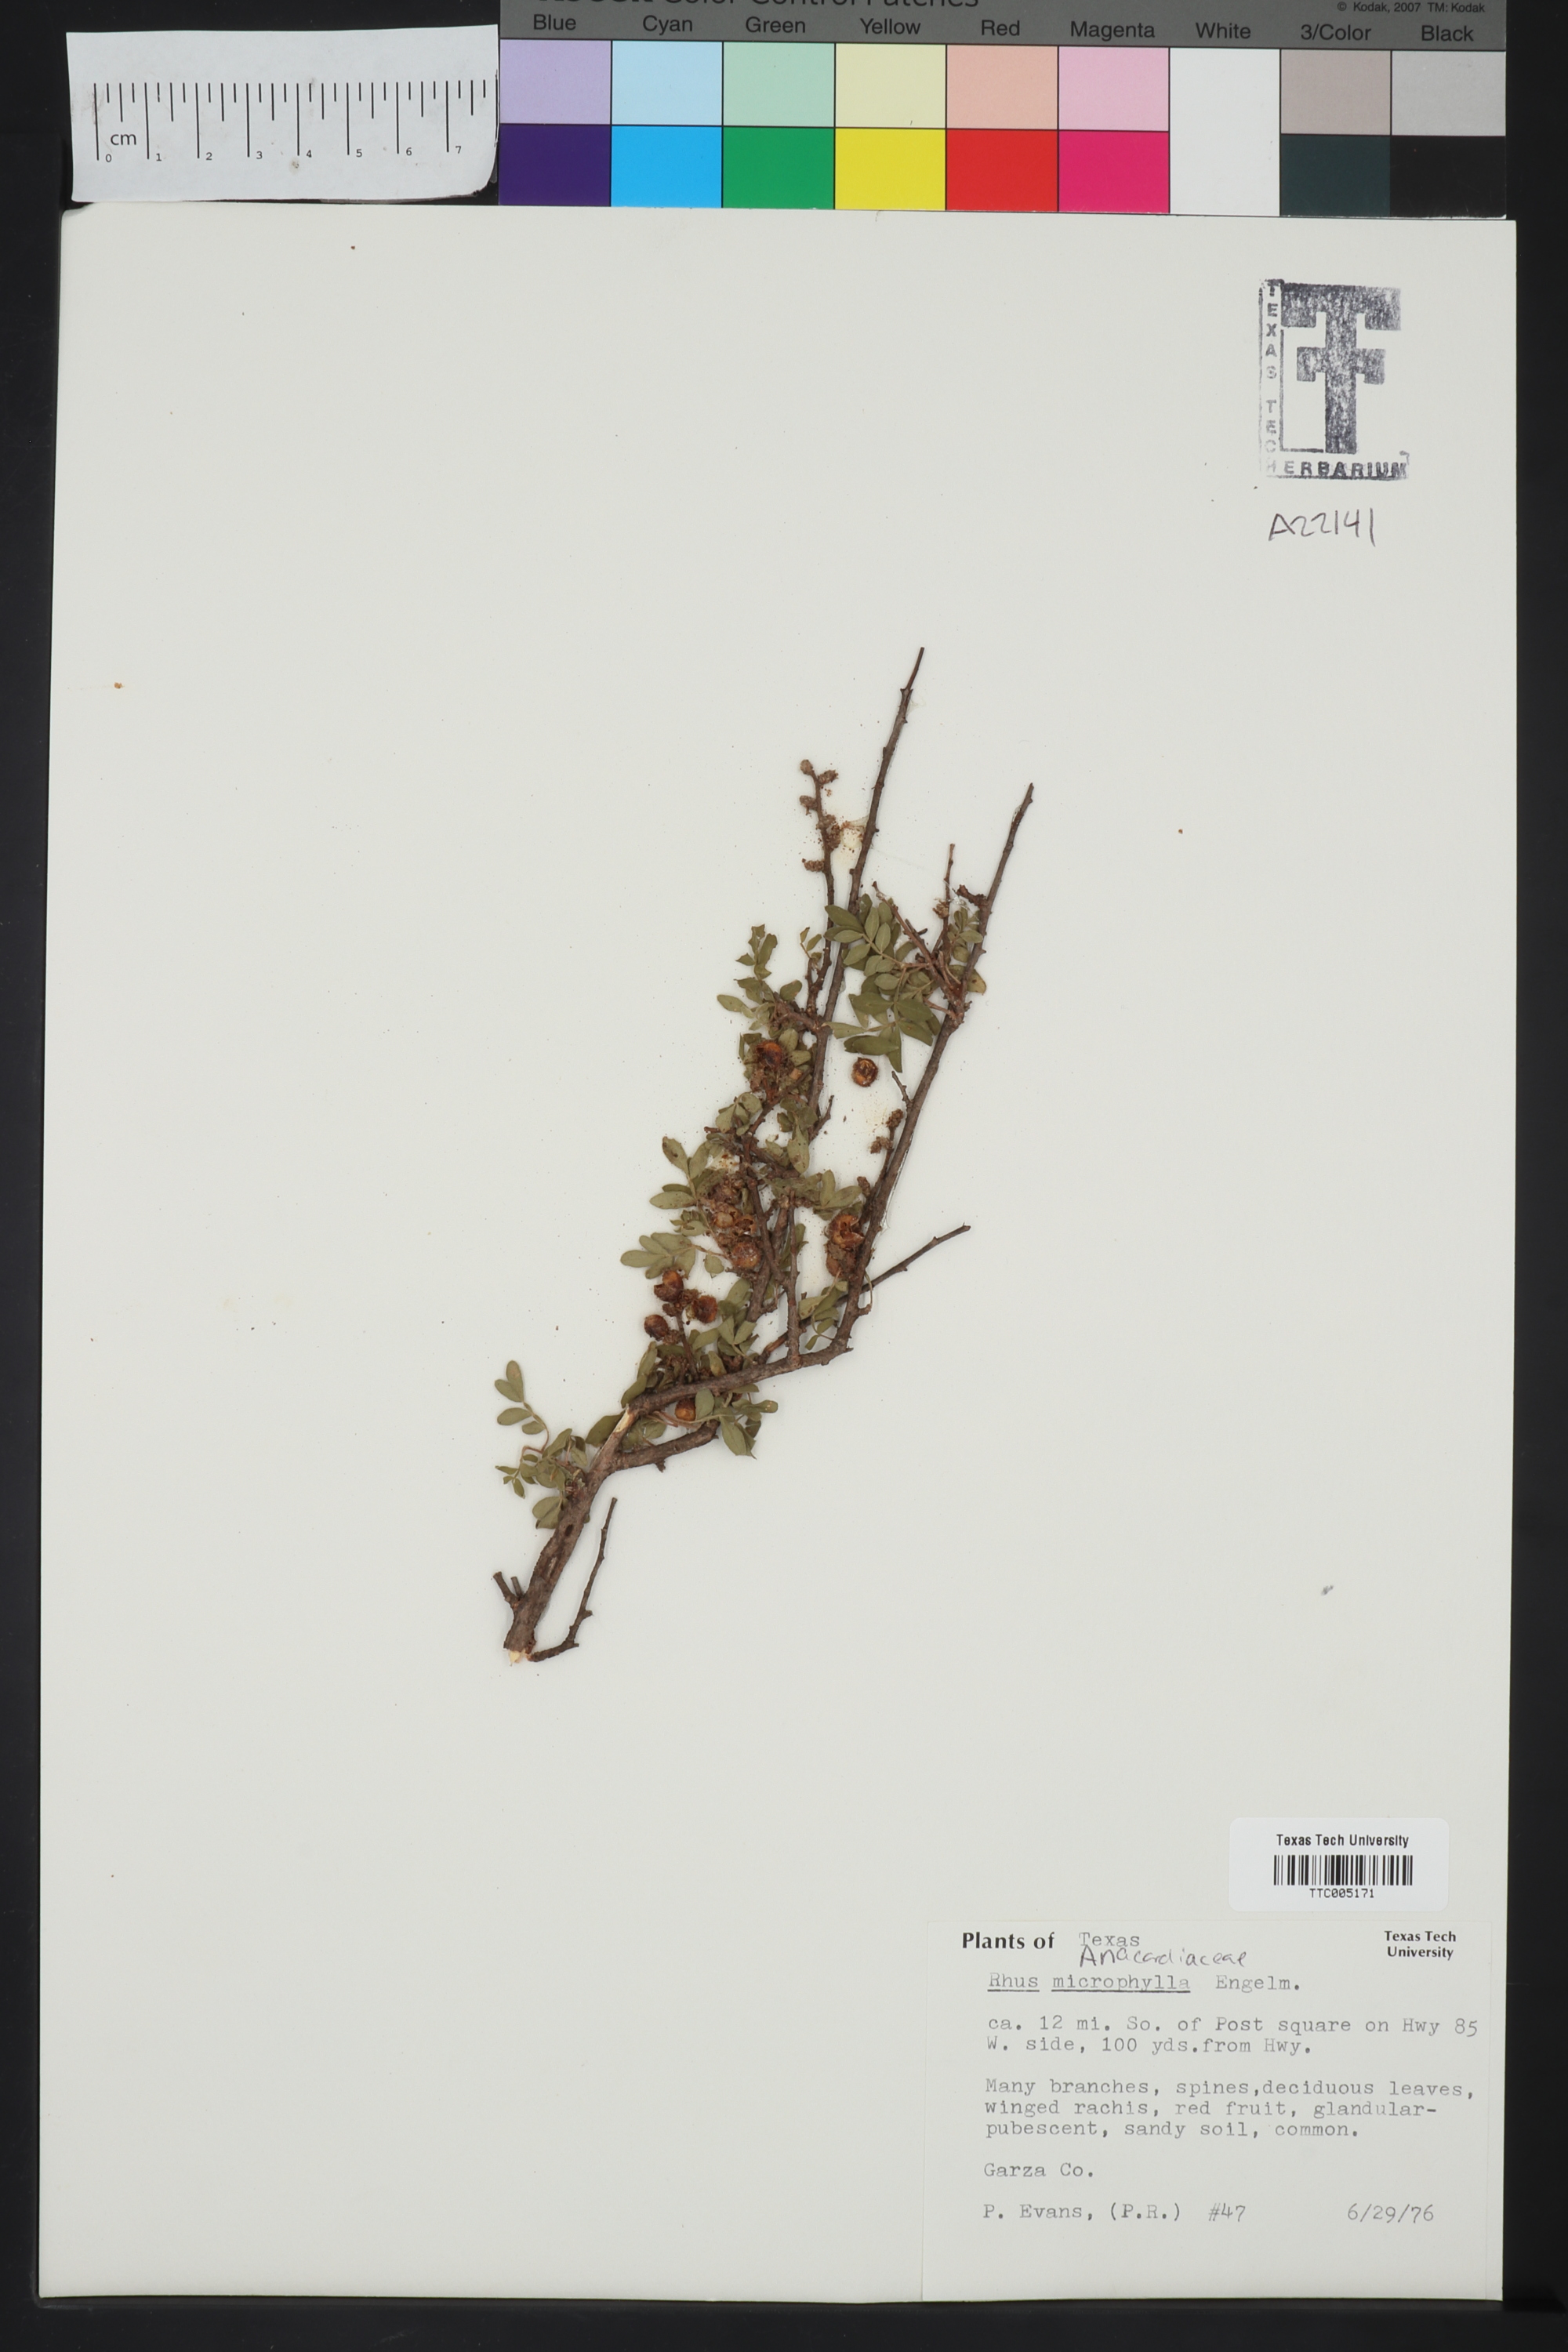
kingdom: Plantae
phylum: Tracheophyta
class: Magnoliopsida
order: Sapindales
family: Anacardiaceae
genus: Rhus
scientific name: Rhus microphylla
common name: Desert sumac
